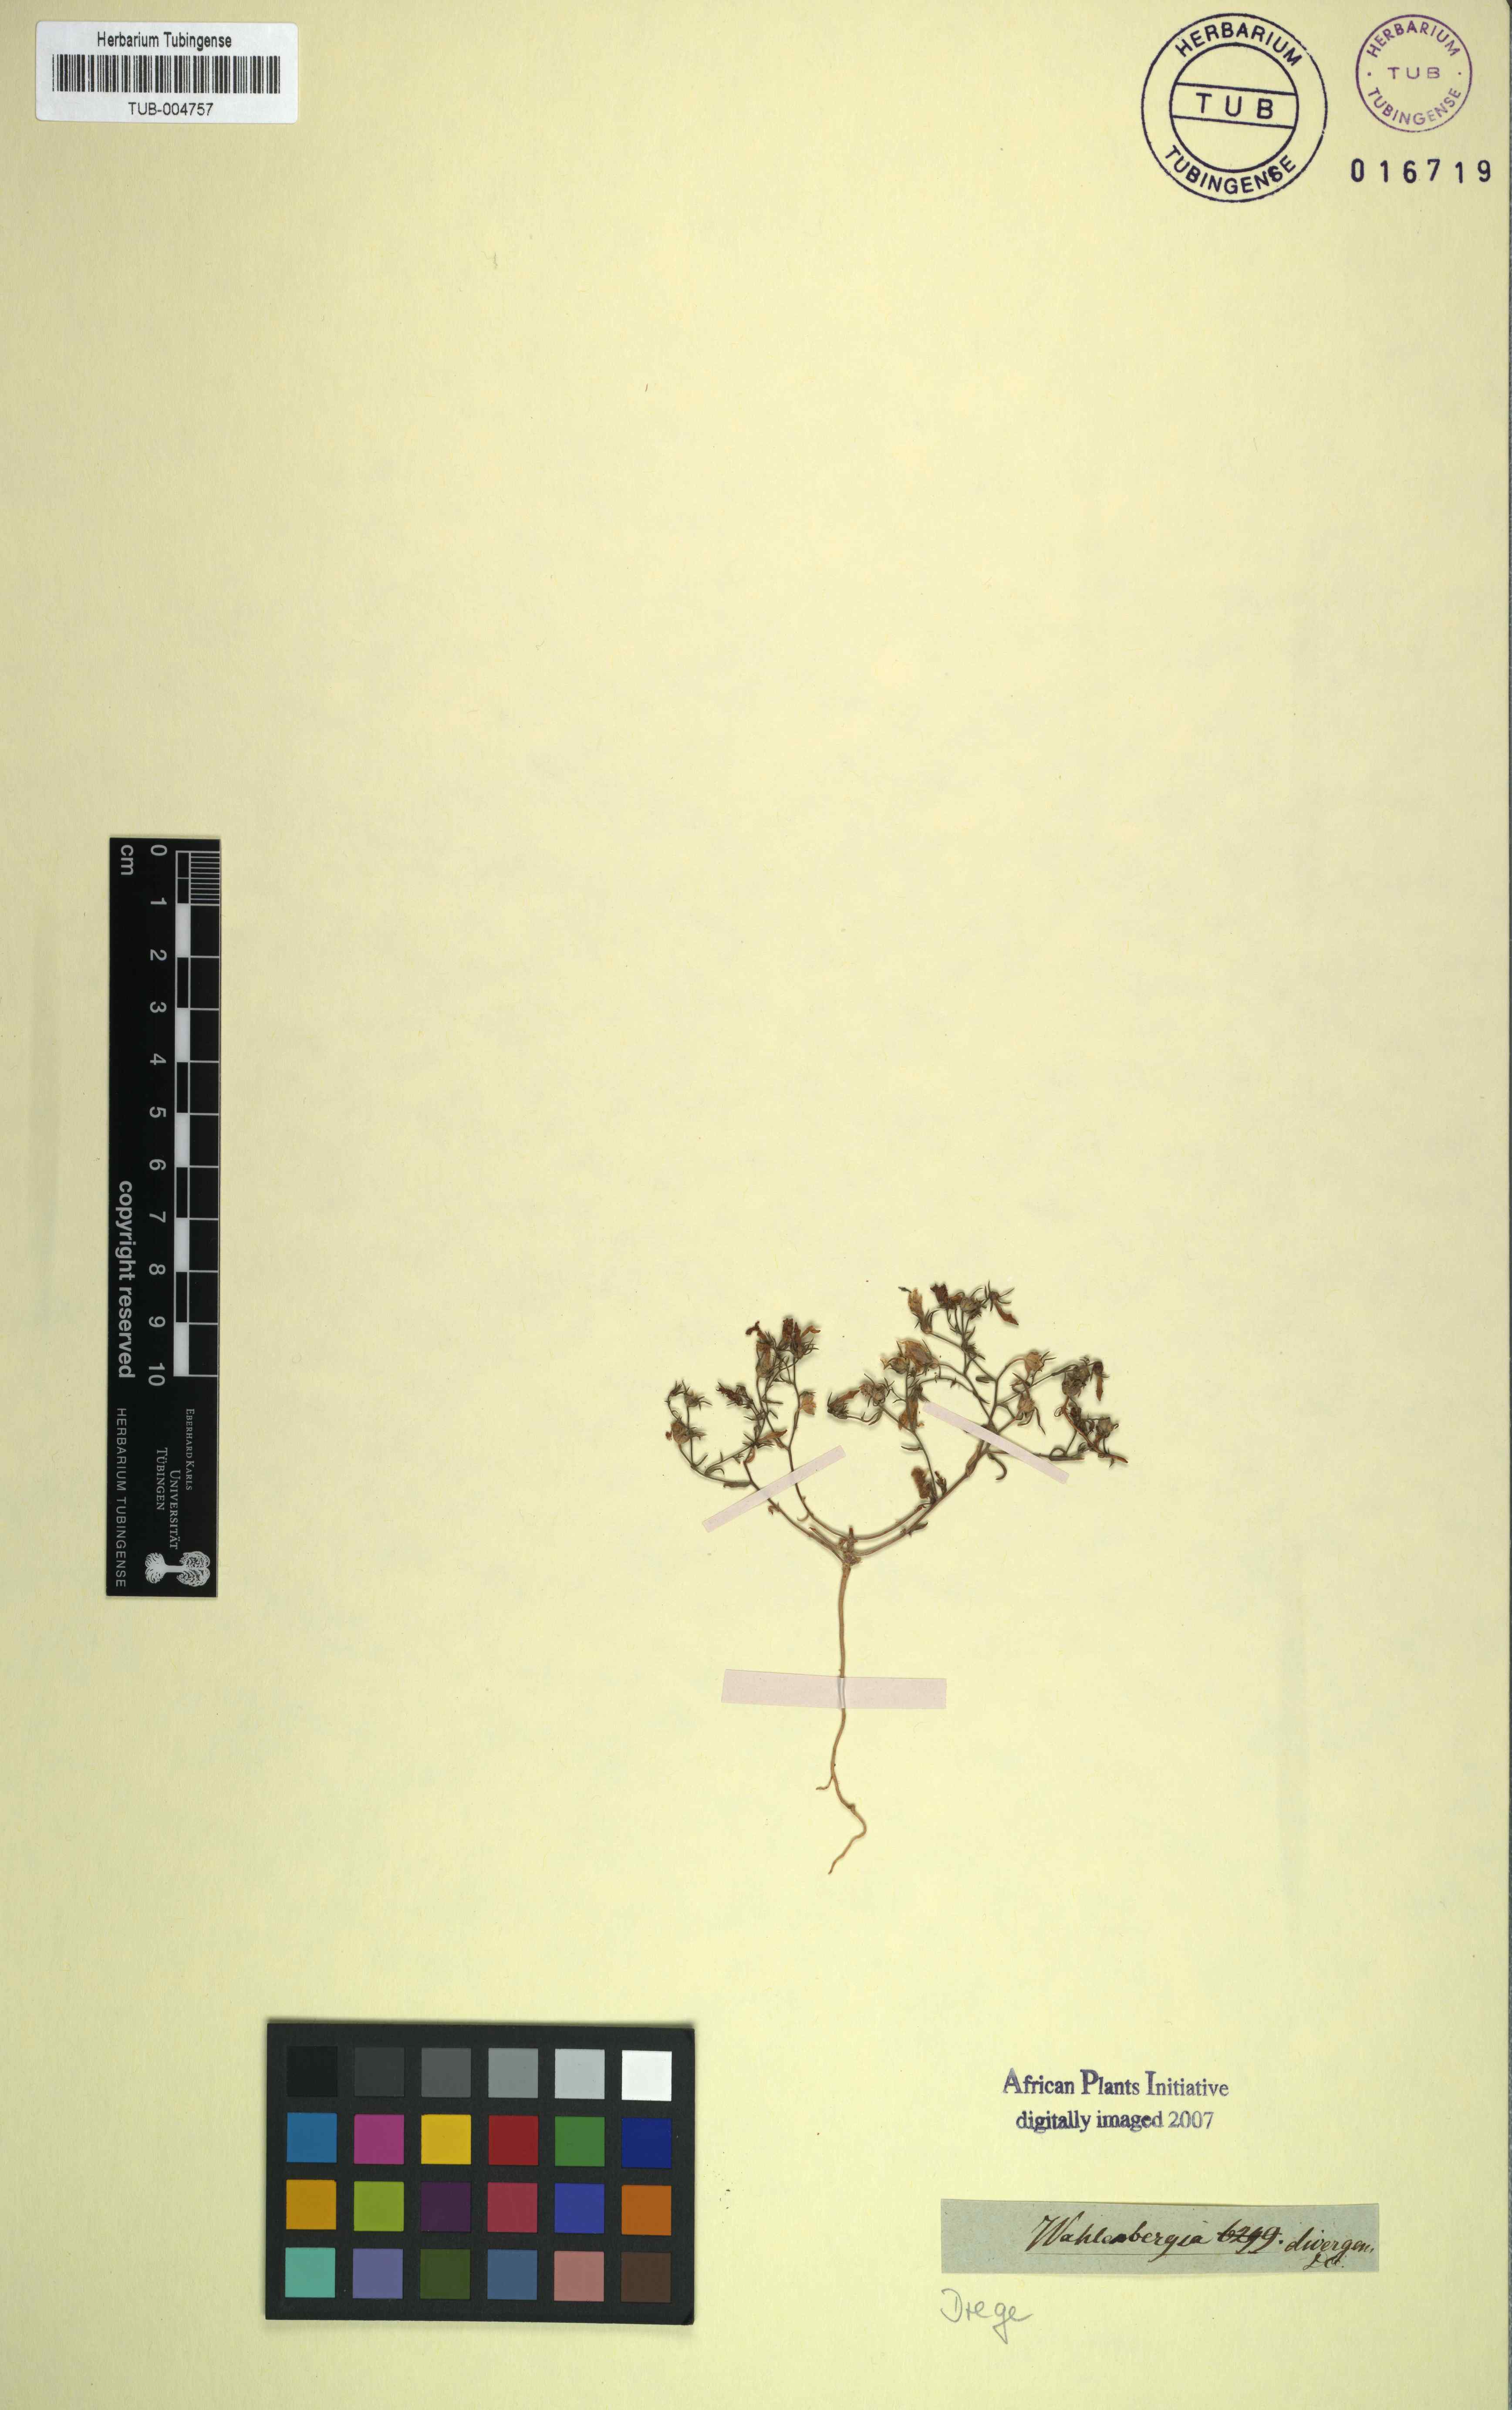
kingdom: Plantae
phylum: Tracheophyta
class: Magnoliopsida
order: Asterales
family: Campanulaceae
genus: Wahlenbergia
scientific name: Wahlenbergia divergens
